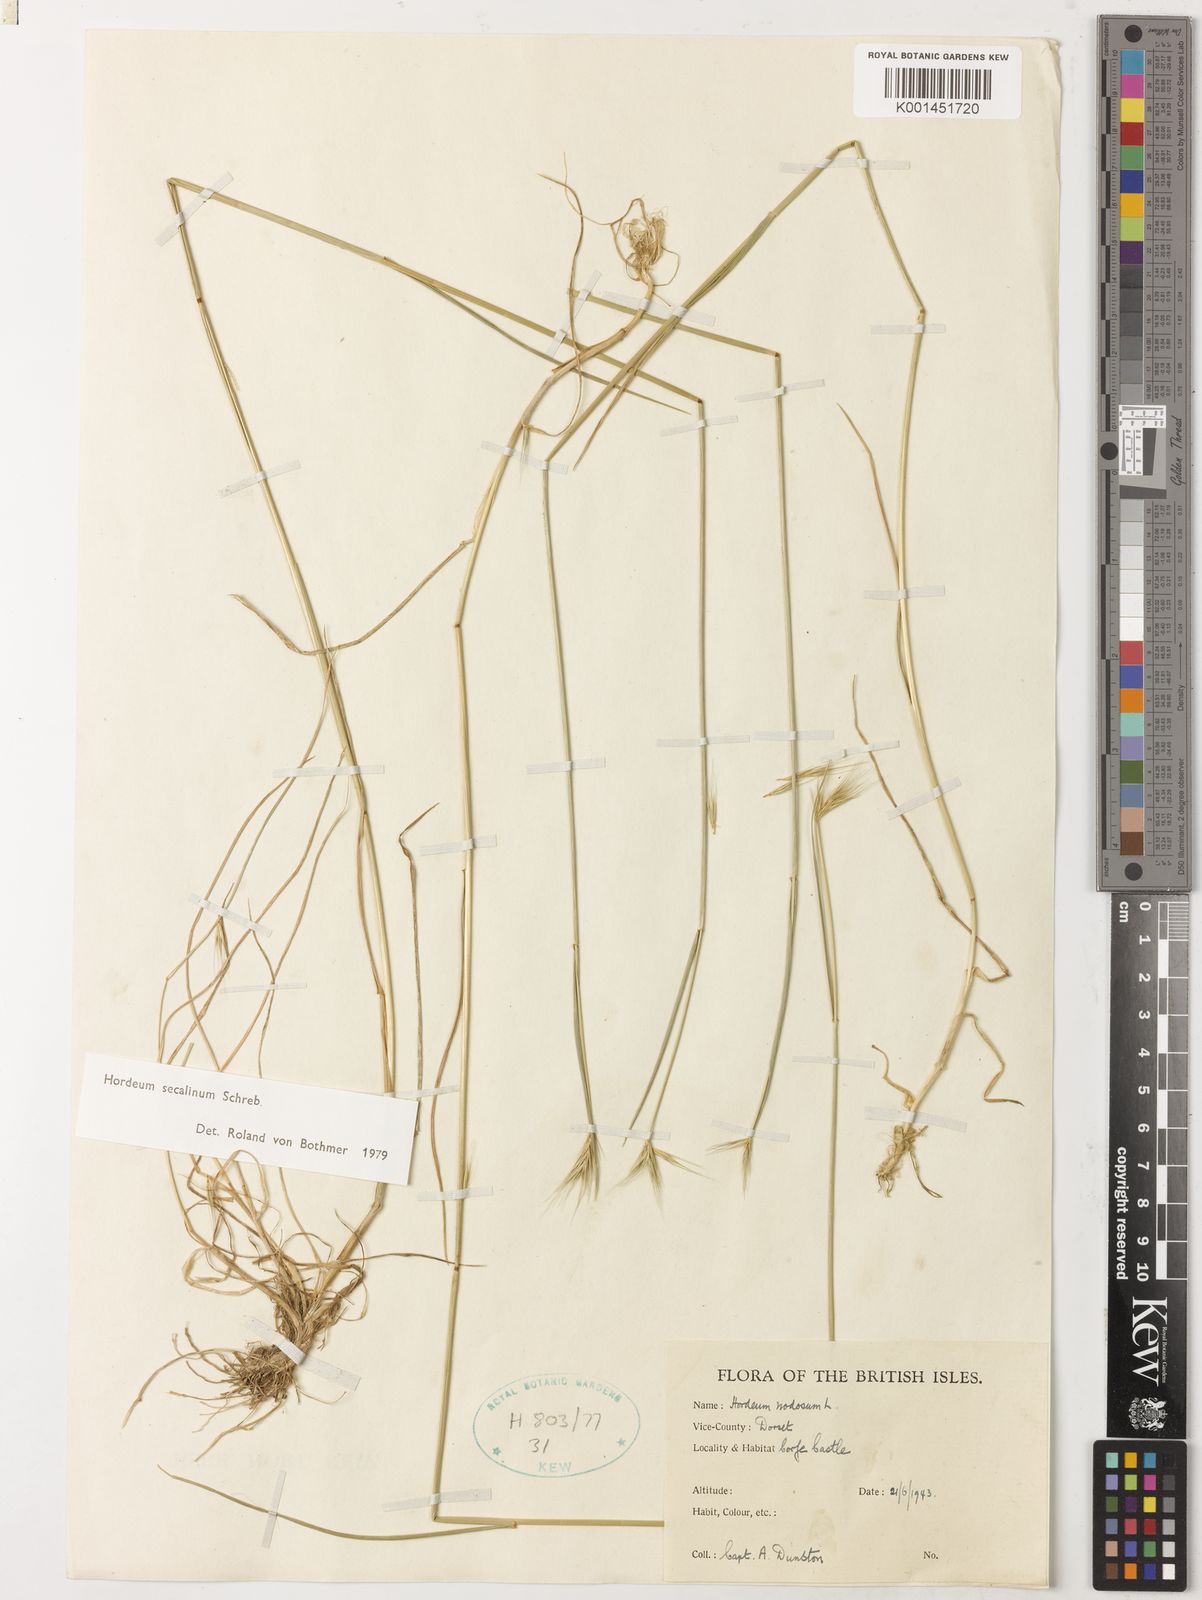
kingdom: Plantae
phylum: Tracheophyta
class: Liliopsida
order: Poales
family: Poaceae
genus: Hordeum
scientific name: Hordeum secalinum
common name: Meadow barley
